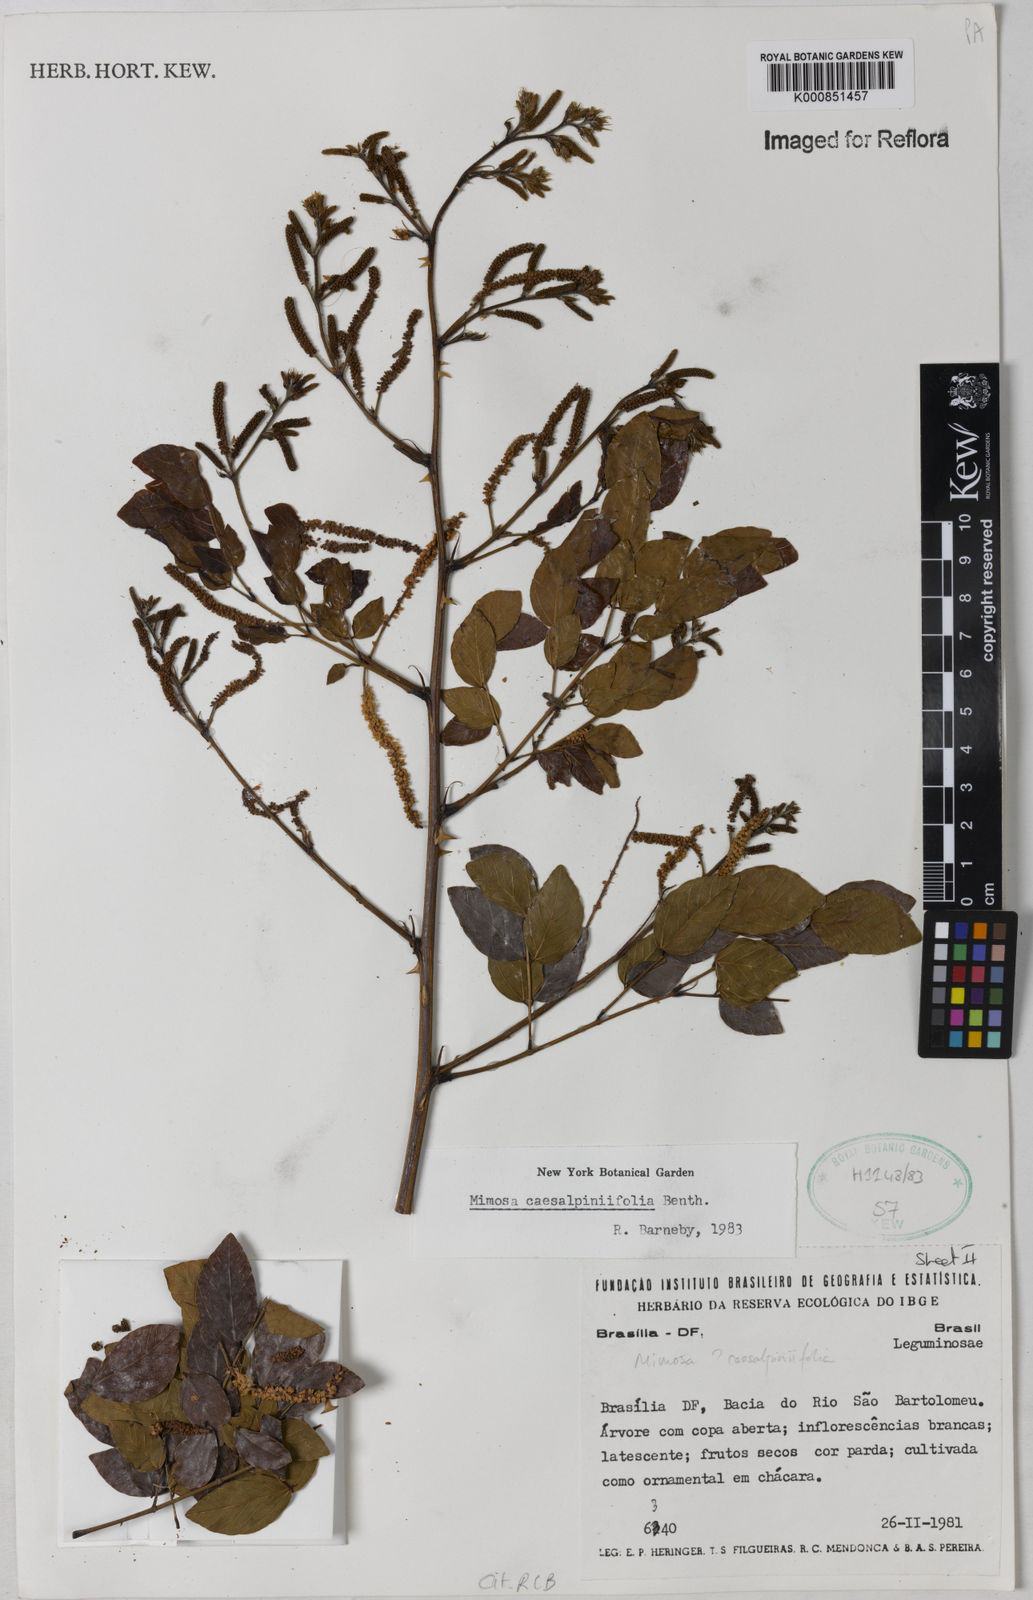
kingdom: Plantae
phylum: Tracheophyta
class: Magnoliopsida
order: Fabales
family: Fabaceae
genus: Mimosa
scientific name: Mimosa caesalpiniifolia
